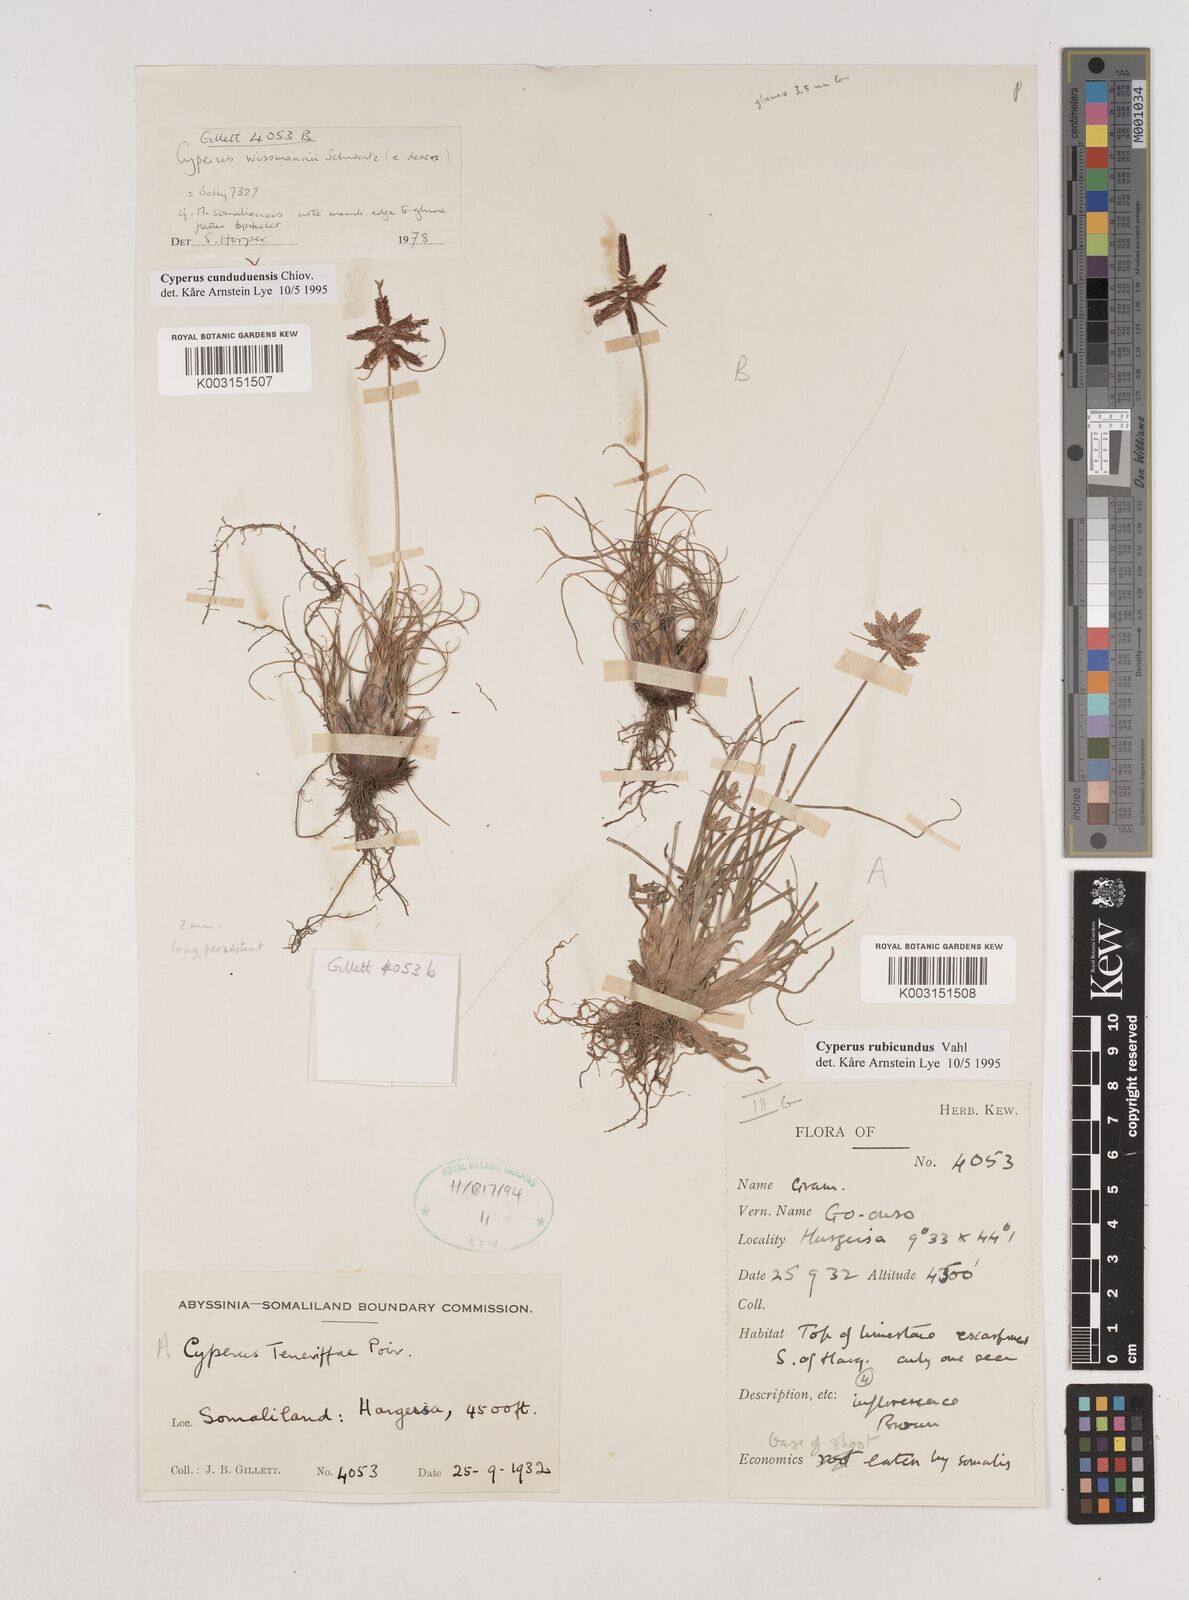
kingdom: Plantae
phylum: Tracheophyta
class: Liliopsida
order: Poales
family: Cyperaceae
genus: Cyperus
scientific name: Cyperus
